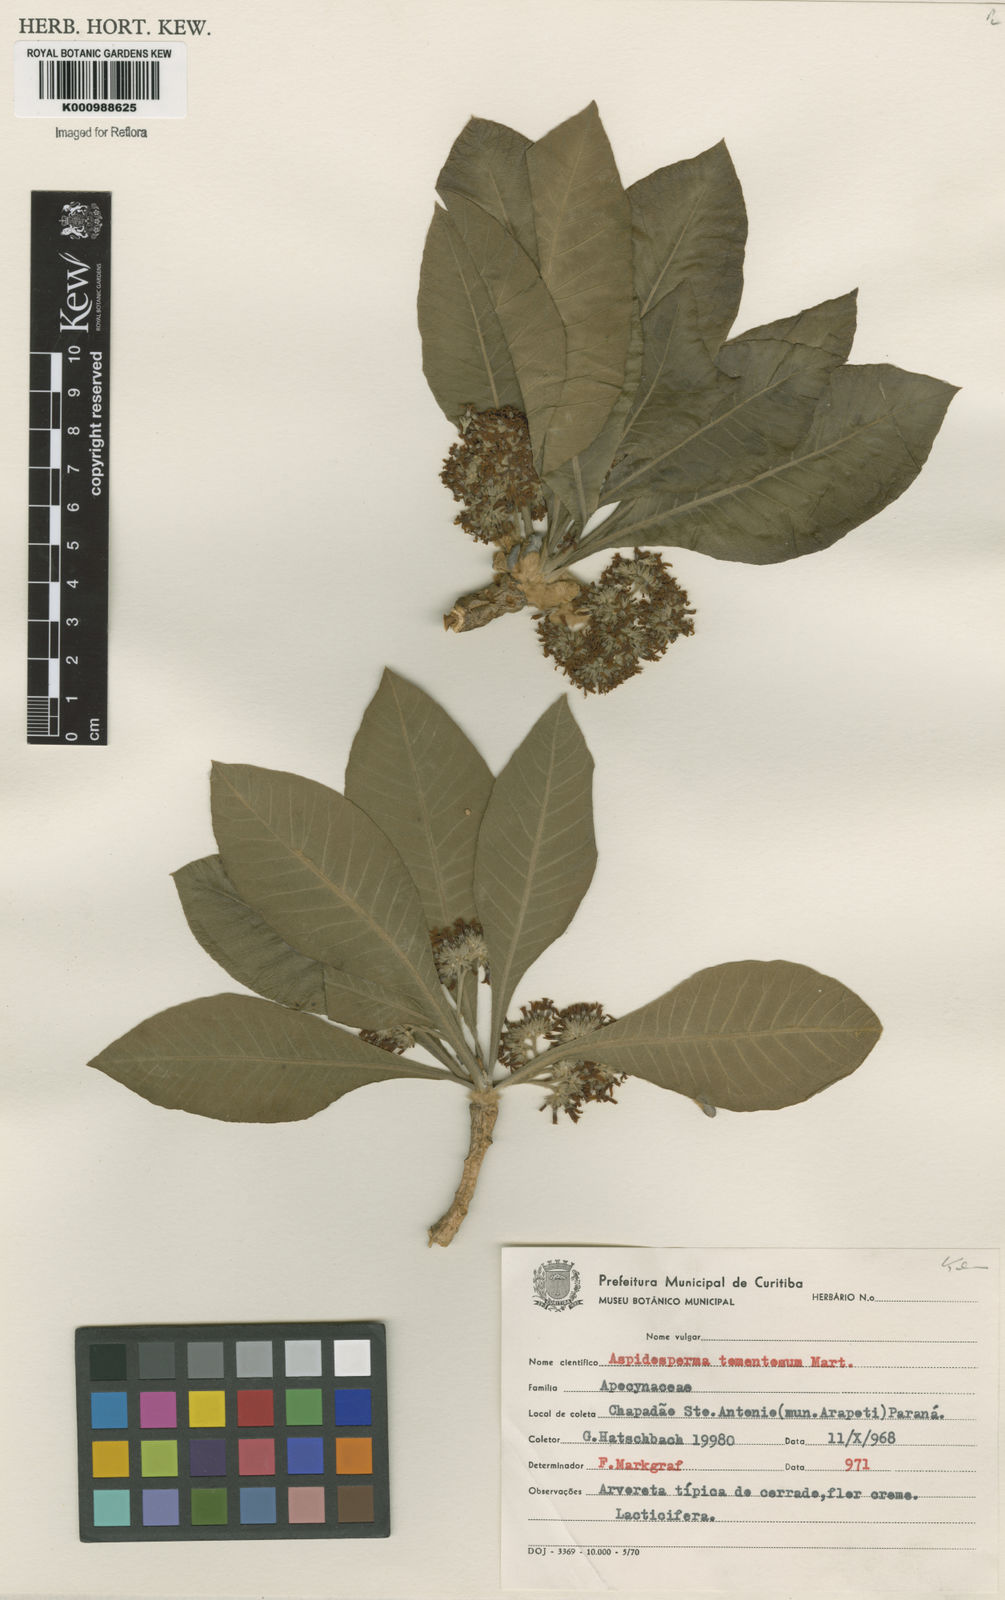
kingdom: Plantae
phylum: Tracheophyta
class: Magnoliopsida
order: Gentianales
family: Apocynaceae
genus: Aspidosperma
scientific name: Aspidosperma tomentosum
